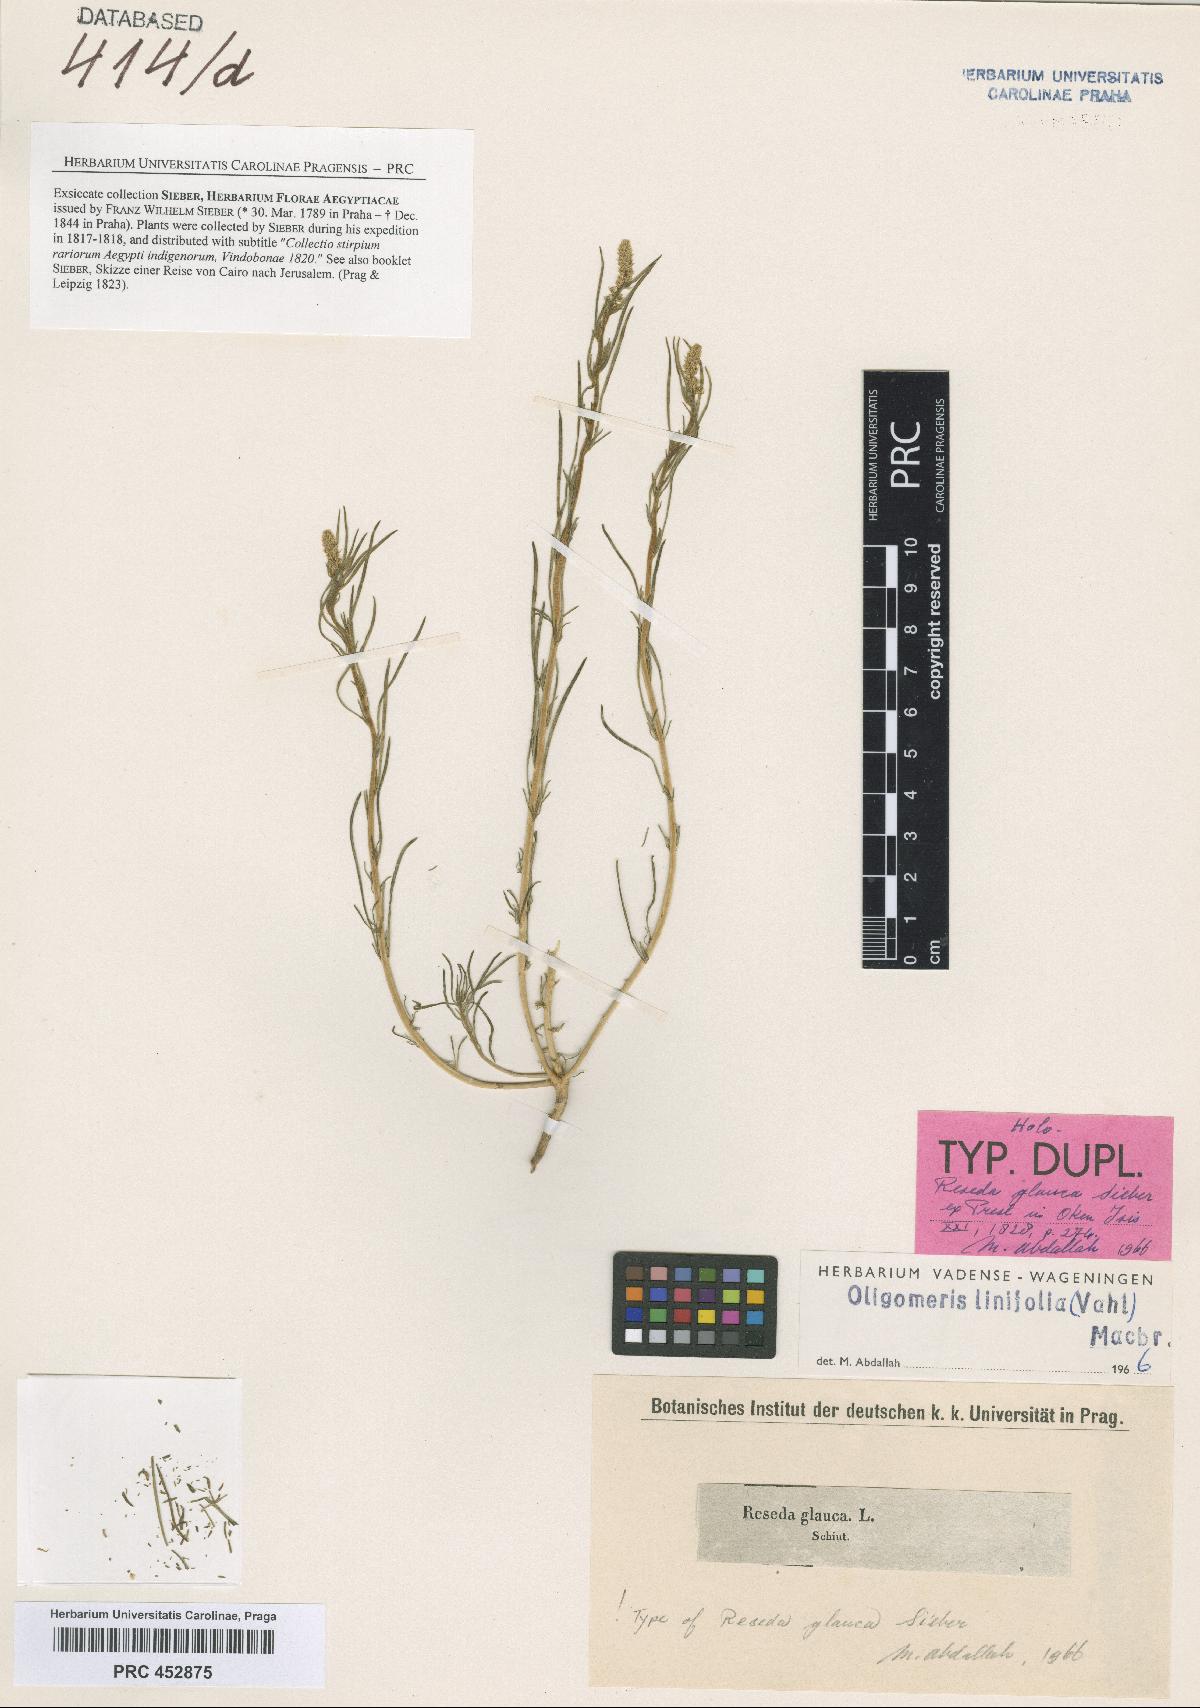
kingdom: Plantae
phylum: Tracheophyta
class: Magnoliopsida
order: Brassicales
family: Resedaceae
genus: Oligomeris
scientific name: Oligomeris dipetala
